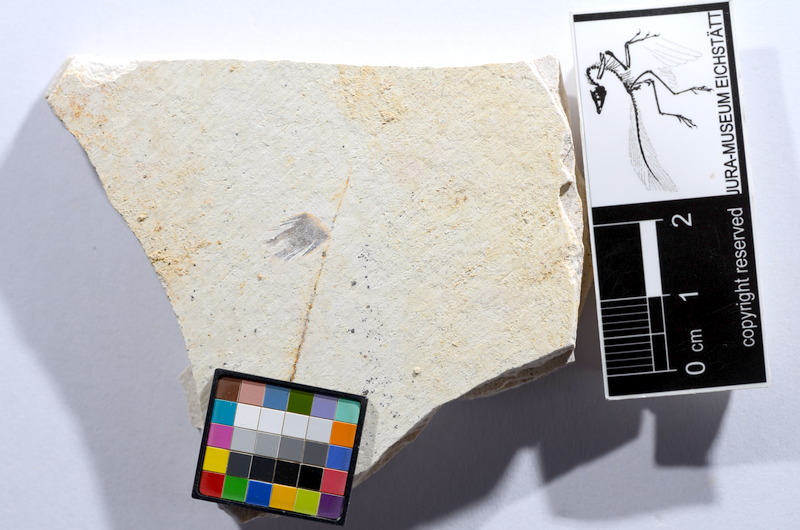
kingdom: Animalia
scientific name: Animalia
